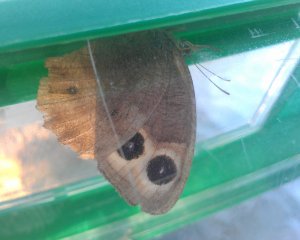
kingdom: Animalia
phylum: Arthropoda
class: Insecta
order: Lepidoptera
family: Nymphalidae
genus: Cercyonis
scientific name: Cercyonis pegala
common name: Common Wood-Nymph
